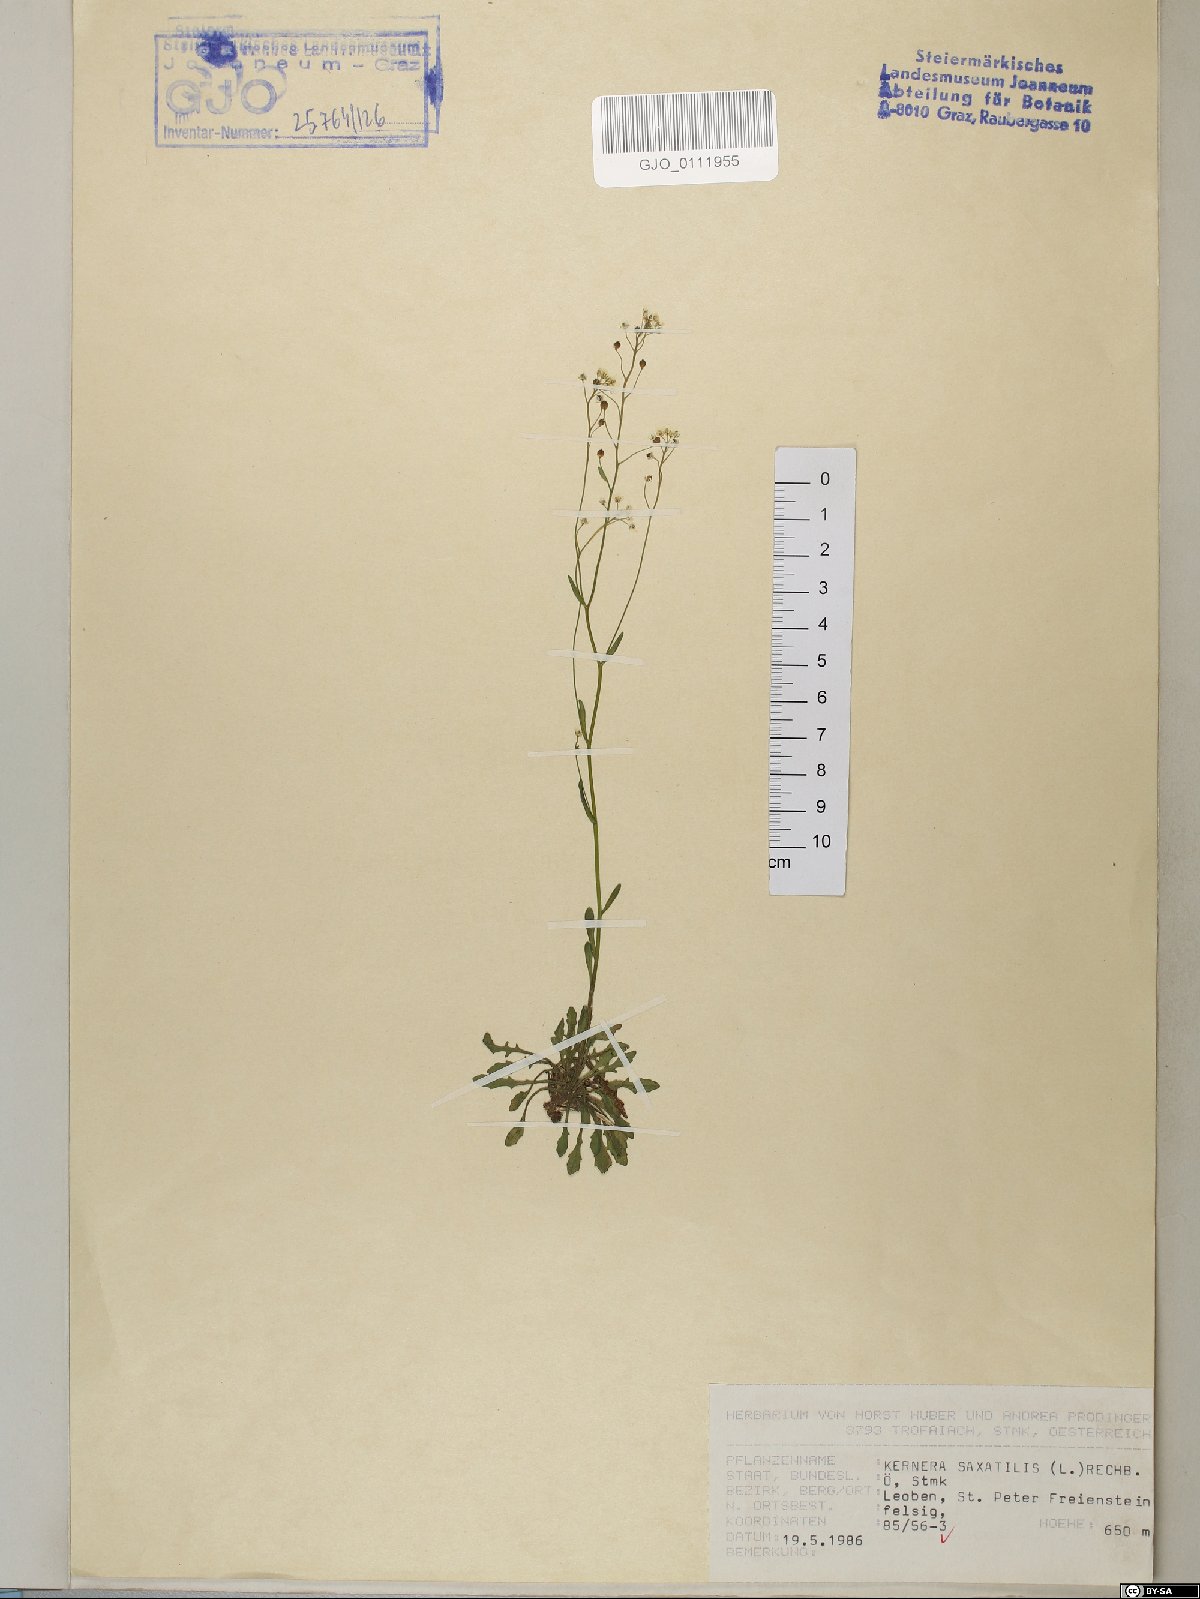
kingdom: Plantae
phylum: Tracheophyta
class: Magnoliopsida
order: Brassicales
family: Brassicaceae
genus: Kernera
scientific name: Kernera saxatilis
